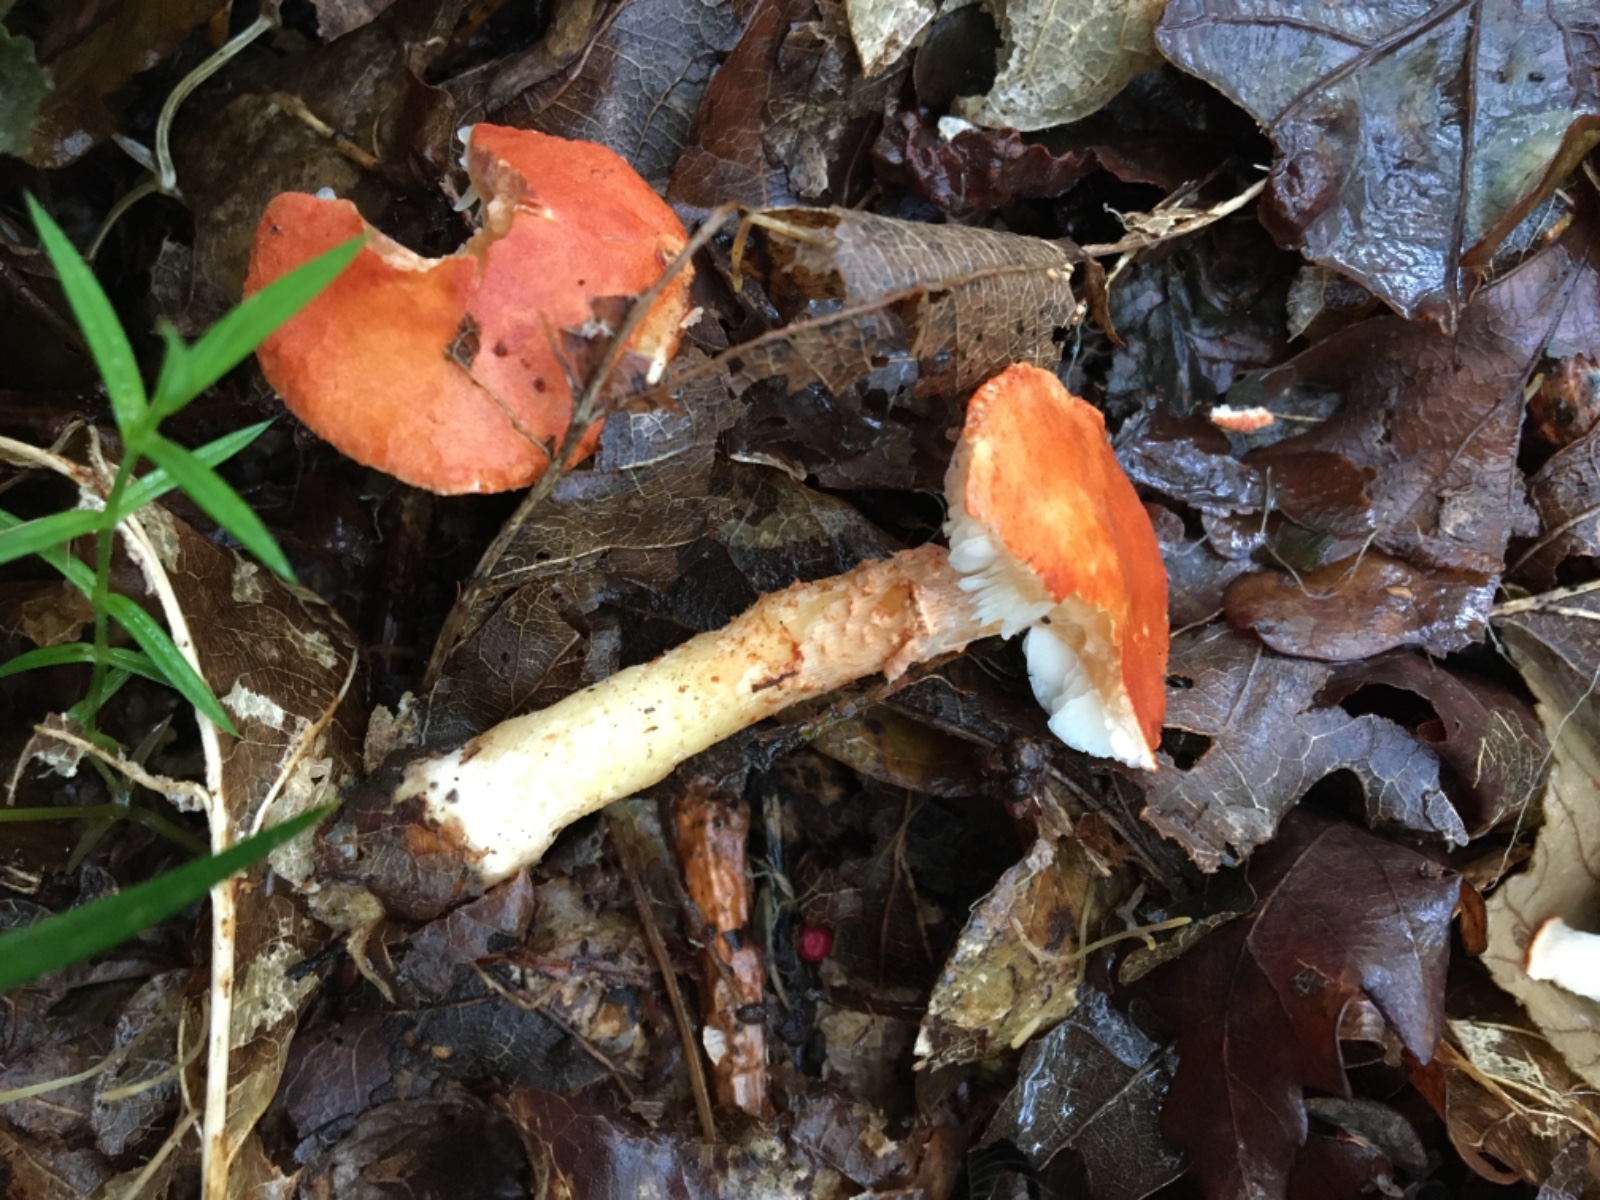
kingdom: Fungi
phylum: Basidiomycota
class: Agaricomycetes
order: Agaricales
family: Agaricaceae
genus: Cystodermella
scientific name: Cystodermella
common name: grynhat
